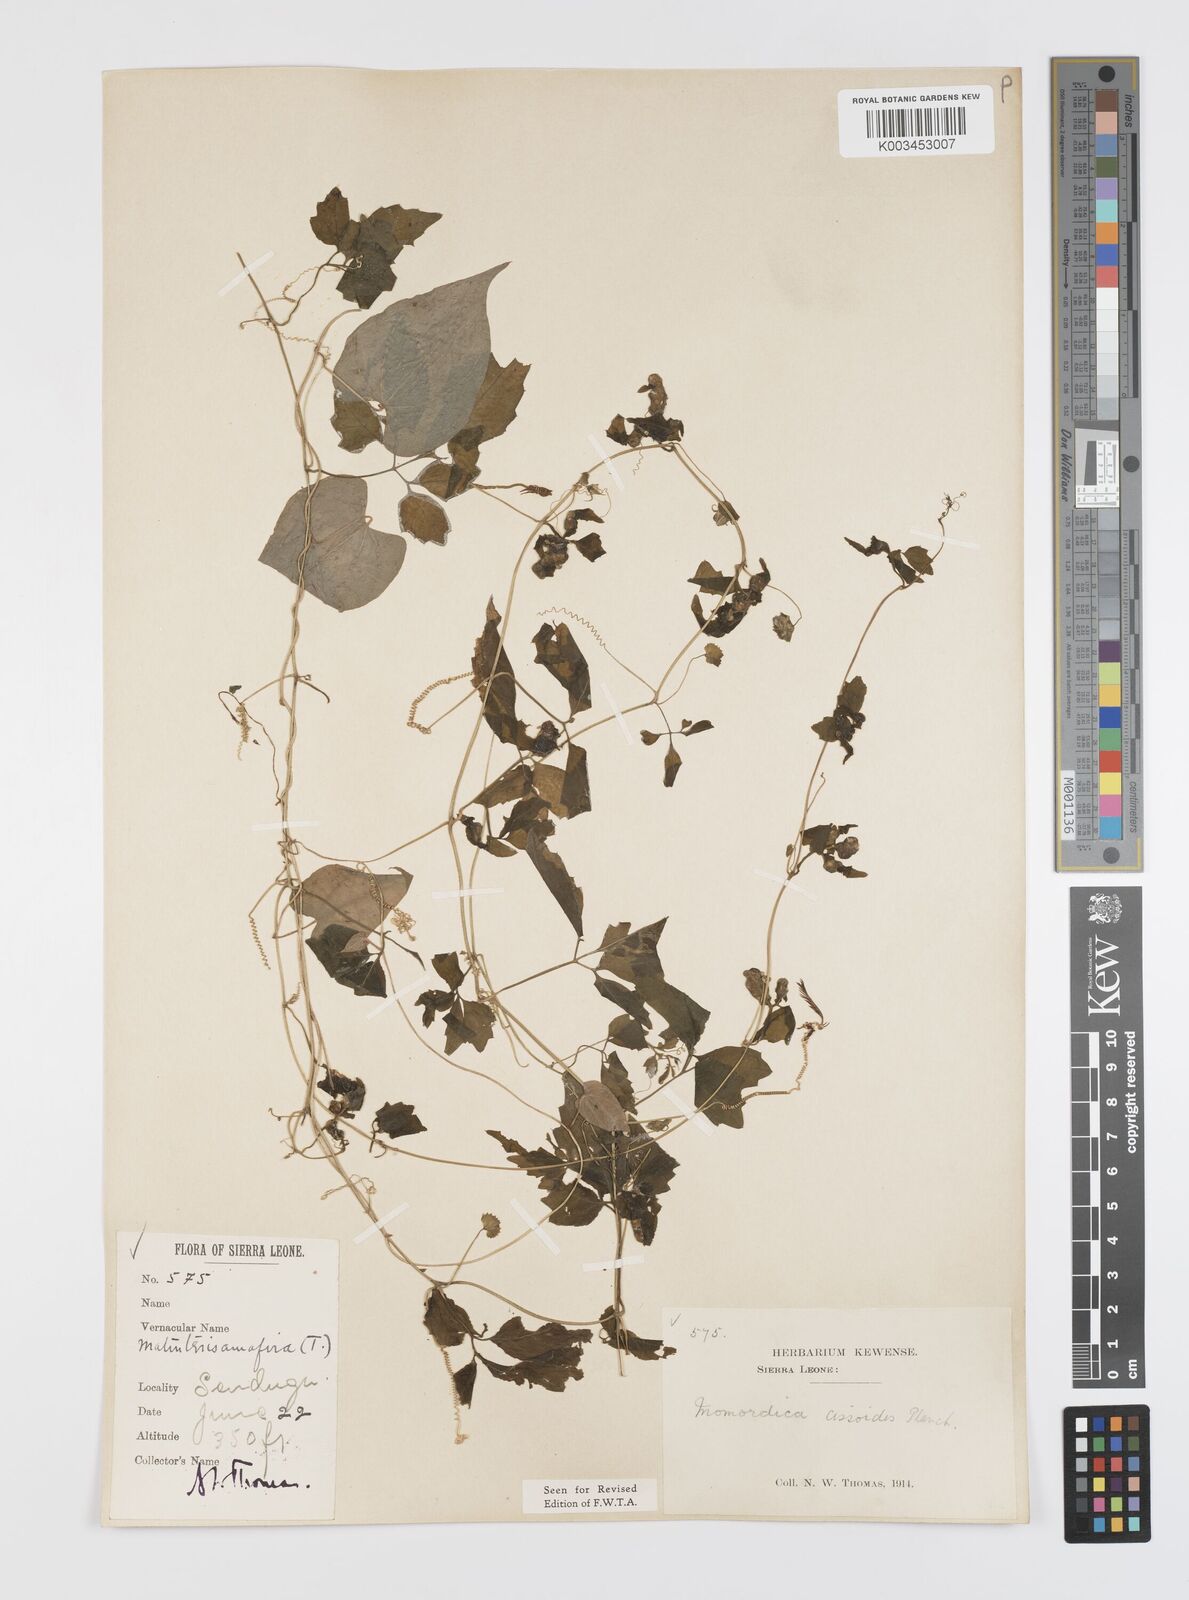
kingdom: Plantae
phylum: Tracheophyta
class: Magnoliopsida
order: Cucurbitales
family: Cucurbitaceae
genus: Momordica
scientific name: Momordica cissoides
